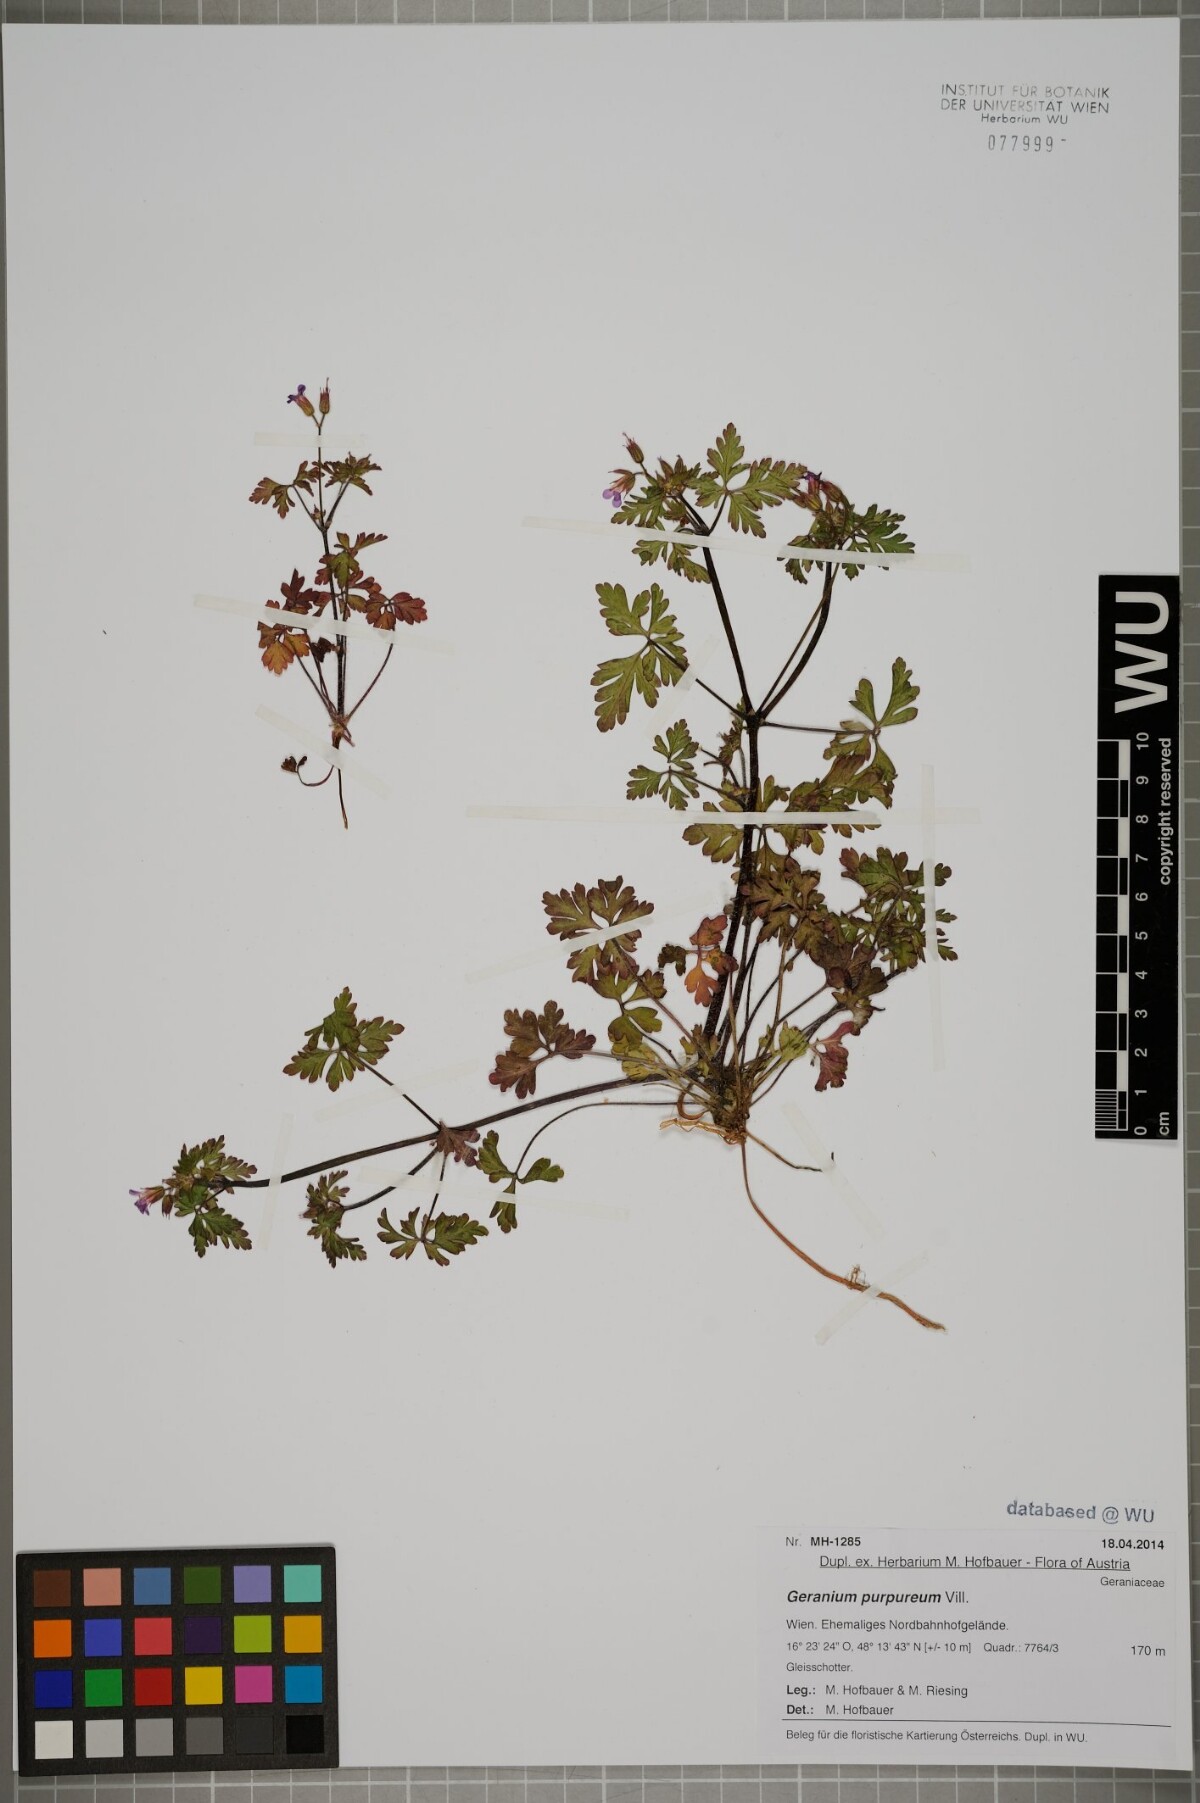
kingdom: Plantae
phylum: Tracheophyta
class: Magnoliopsida
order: Geraniales
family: Geraniaceae
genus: Geranium
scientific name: Geranium purpureum
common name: Little-robin
